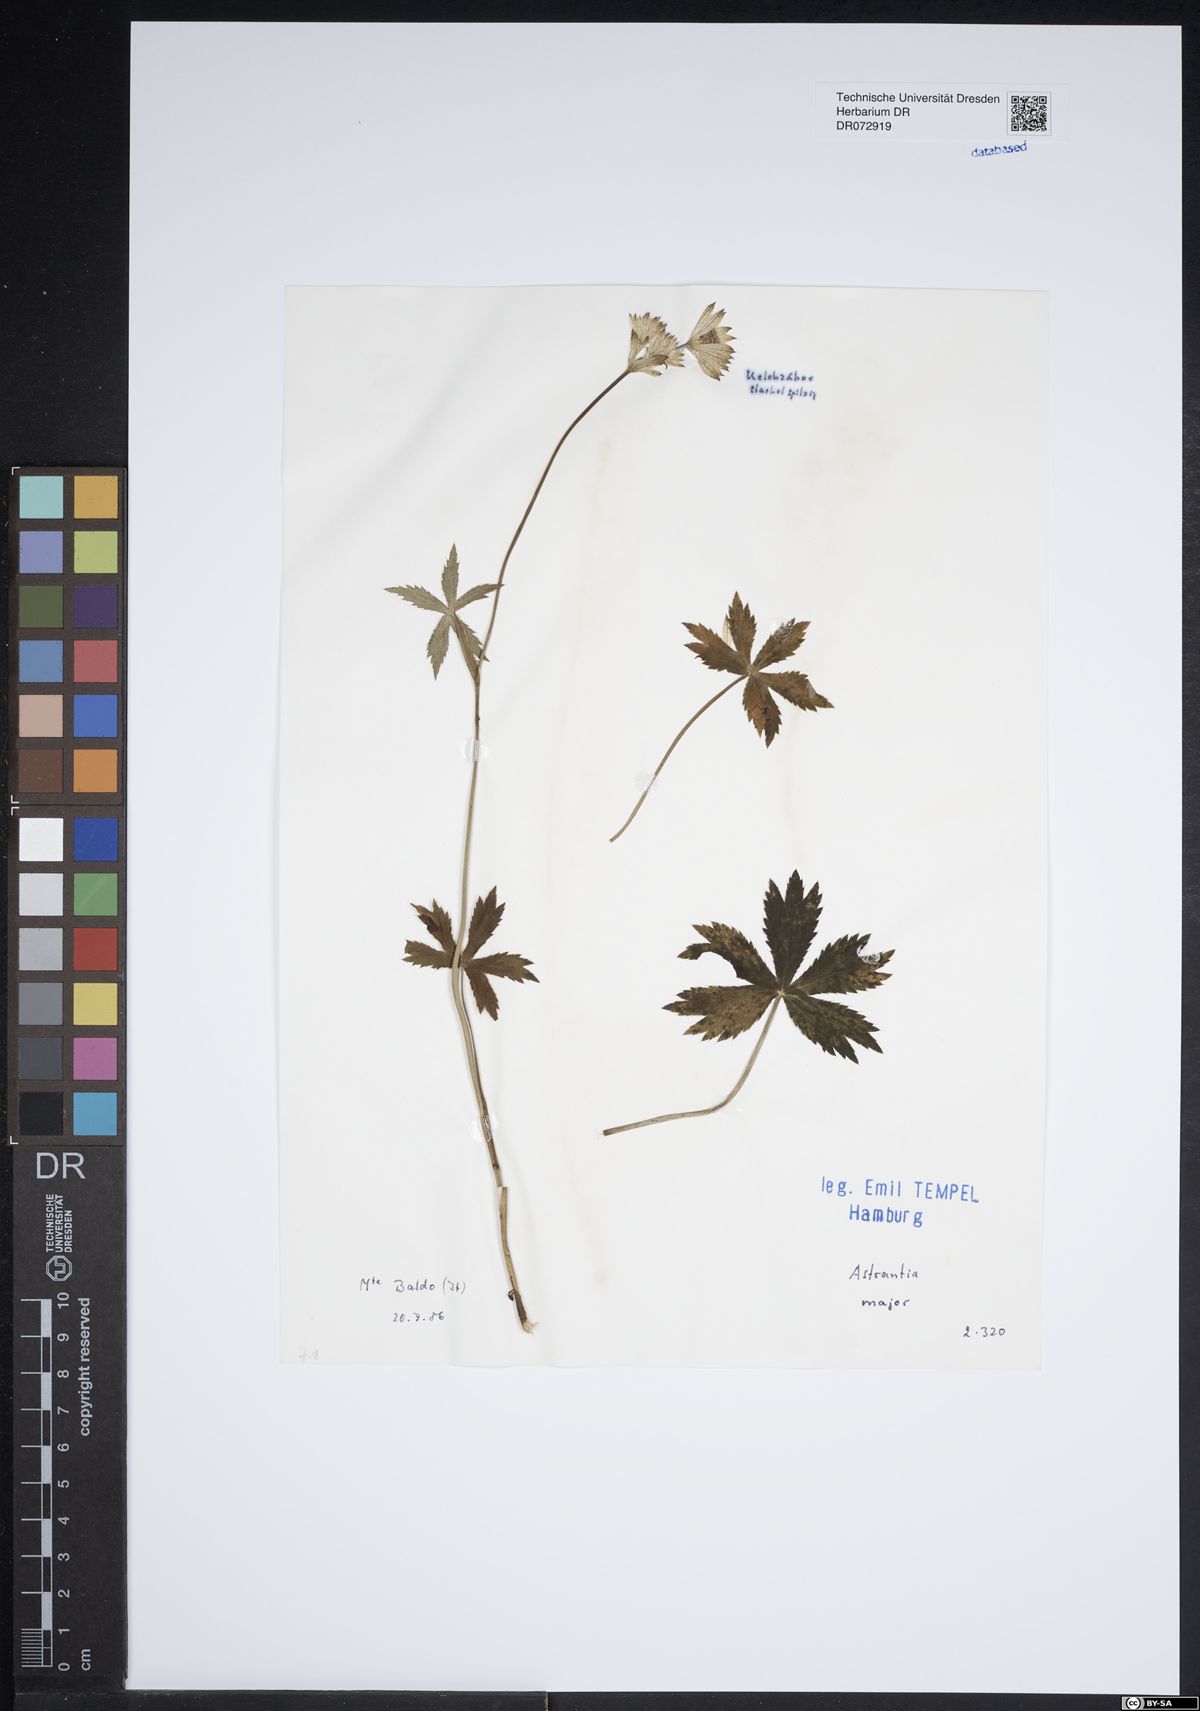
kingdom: Plantae
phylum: Tracheophyta
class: Magnoliopsida
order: Apiales
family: Apiaceae
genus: Astrantia
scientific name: Astrantia major
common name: Greater masterwort
